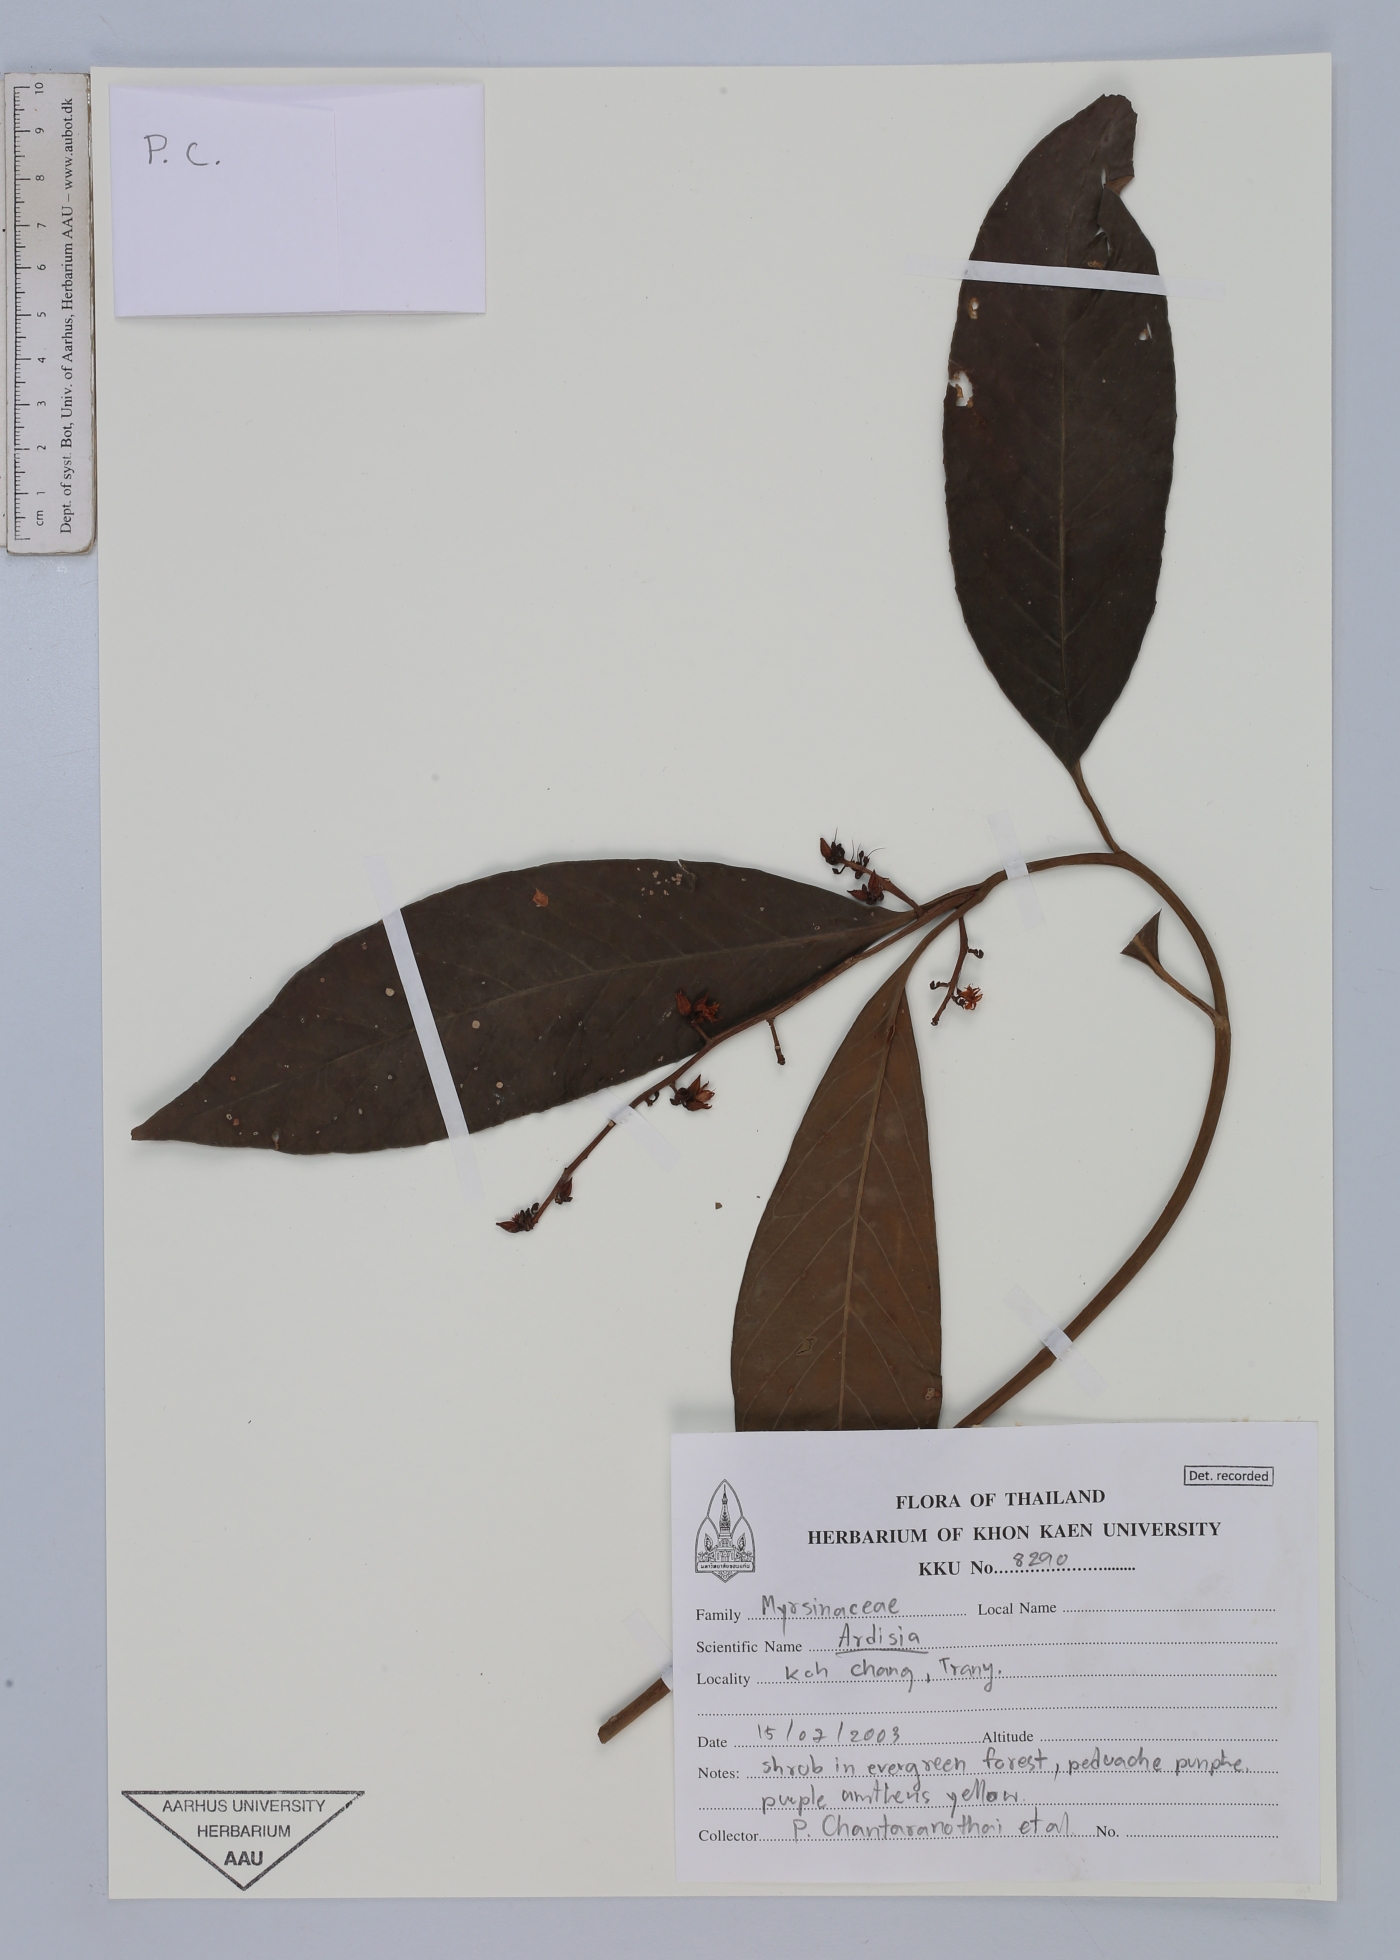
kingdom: Plantae
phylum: Tracheophyta
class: Magnoliopsida
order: Ericales
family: Primulaceae
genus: Ardisia
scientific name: Ardisia
